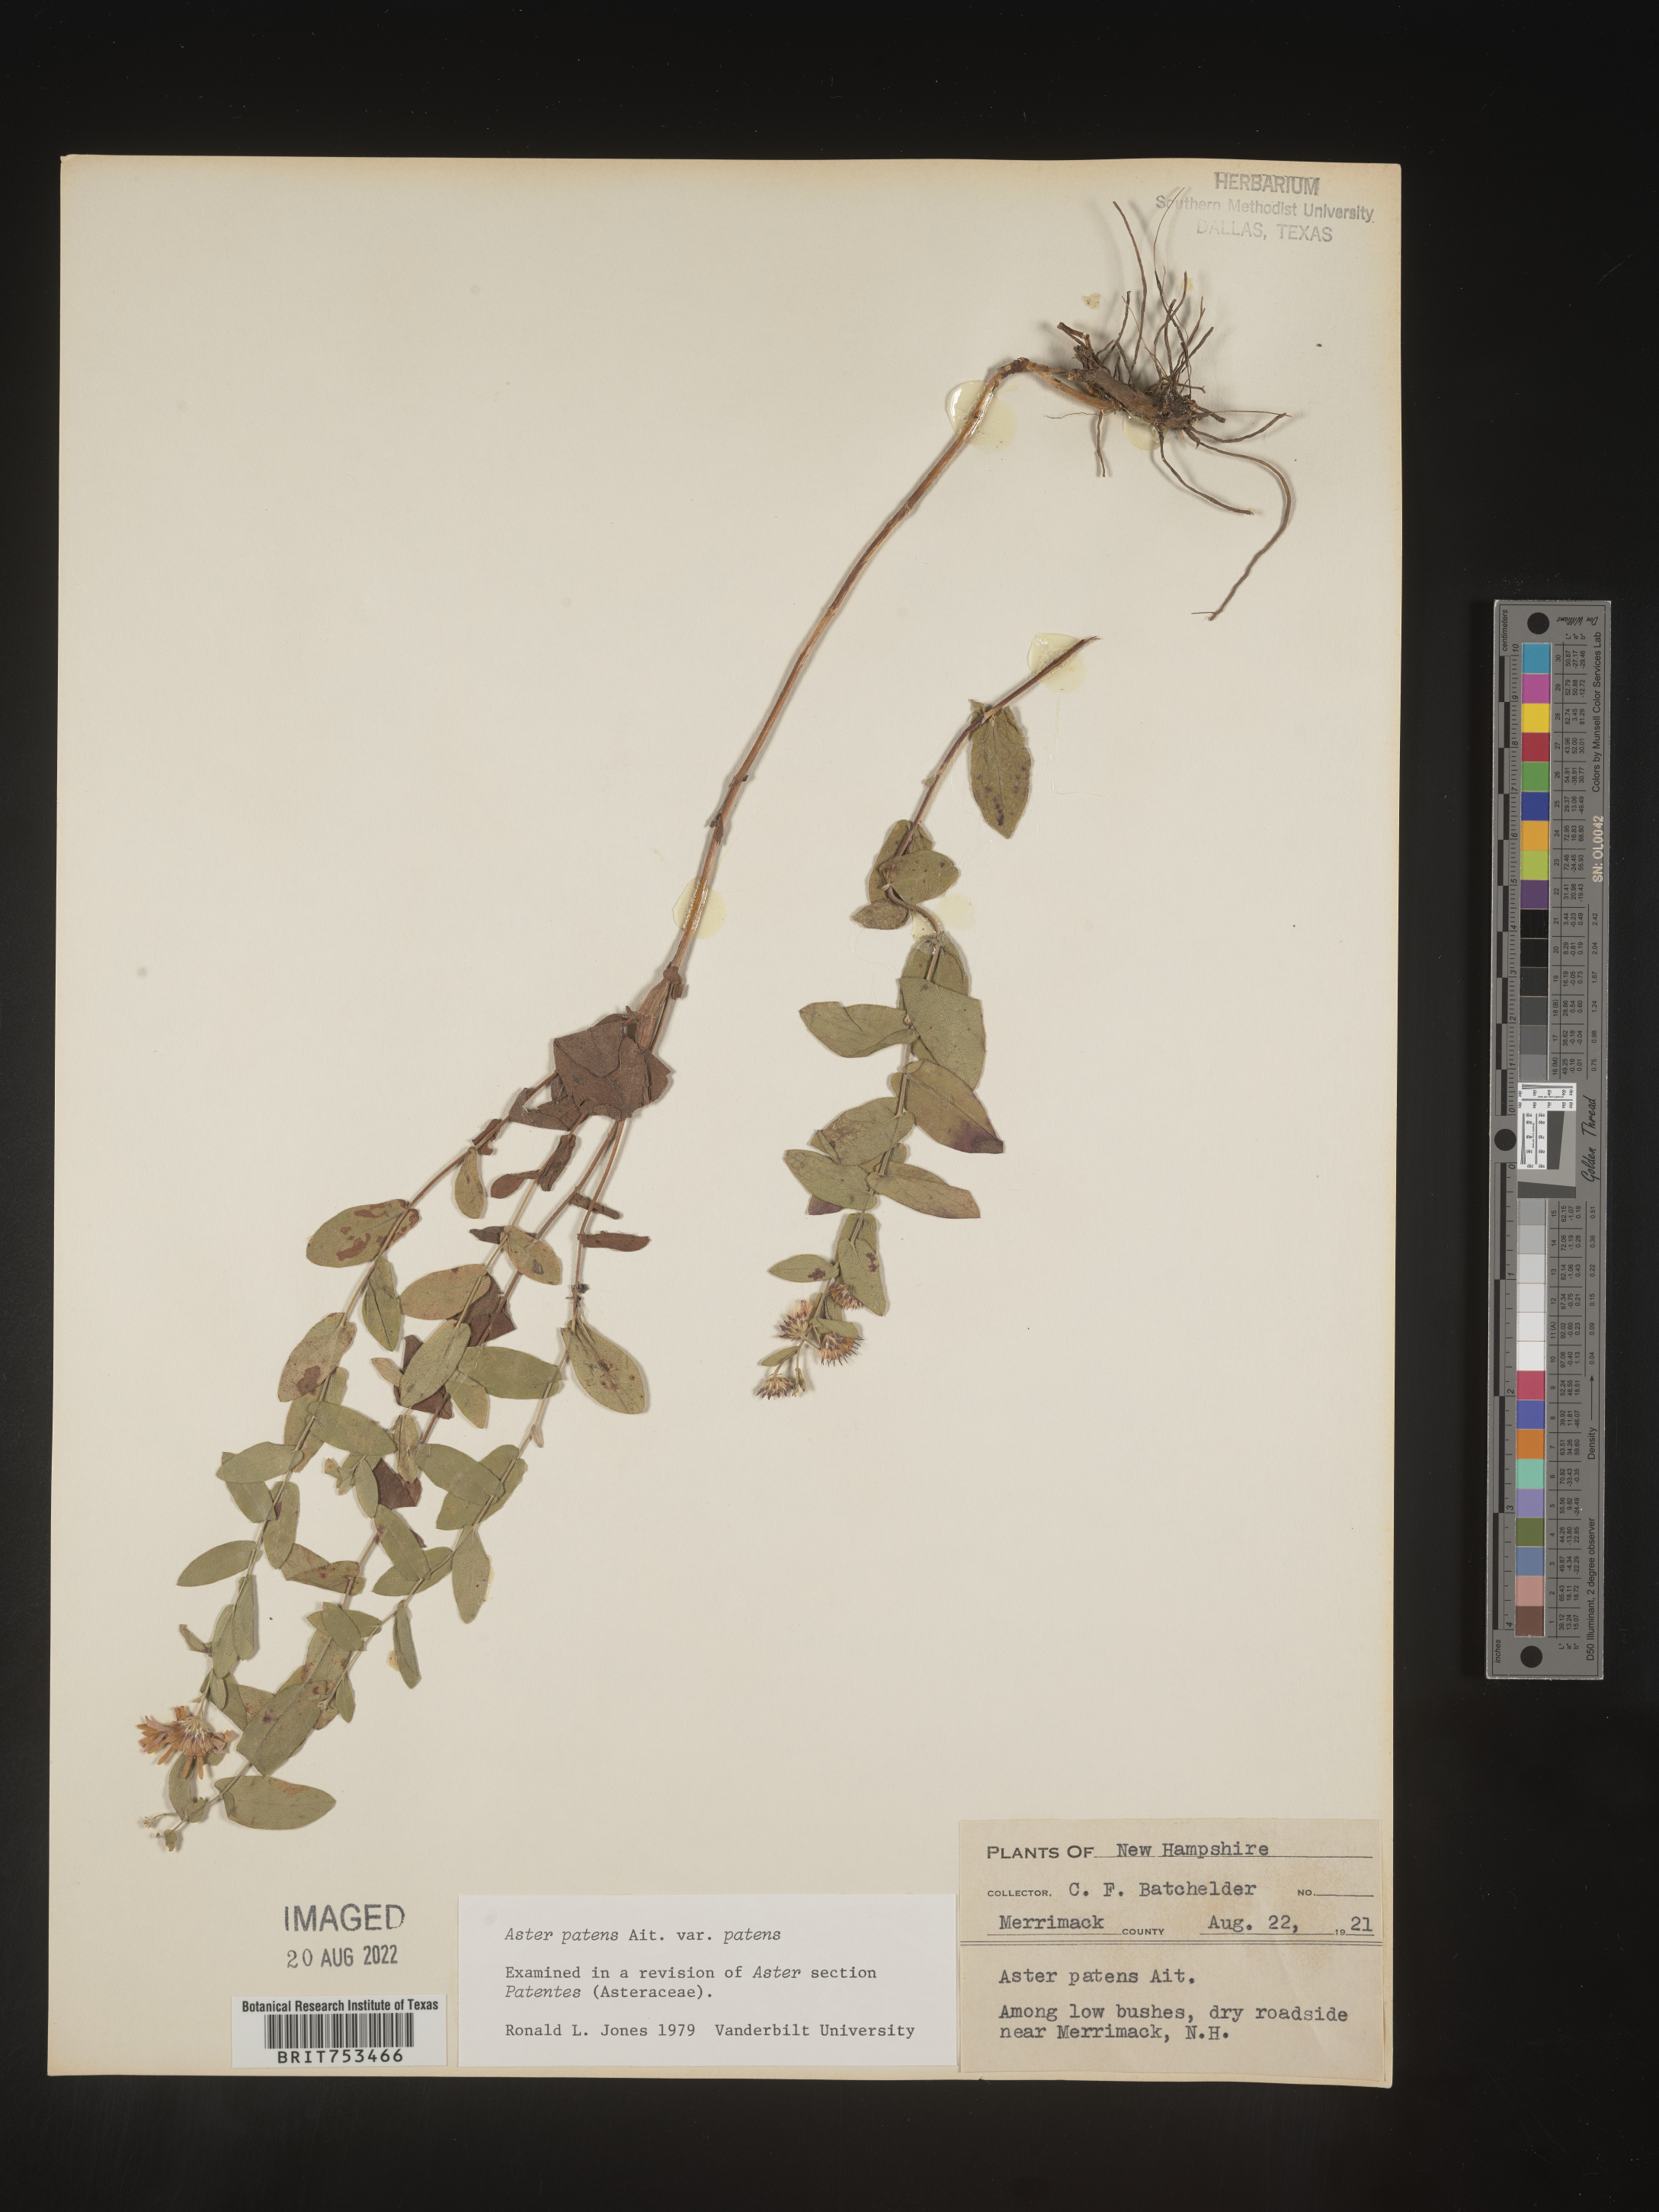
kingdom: Plantae
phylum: Tracheophyta
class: Magnoliopsida
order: Asterales
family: Asteraceae
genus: Symphyotrichum
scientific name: Symphyotrichum patens
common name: Late purple aster
